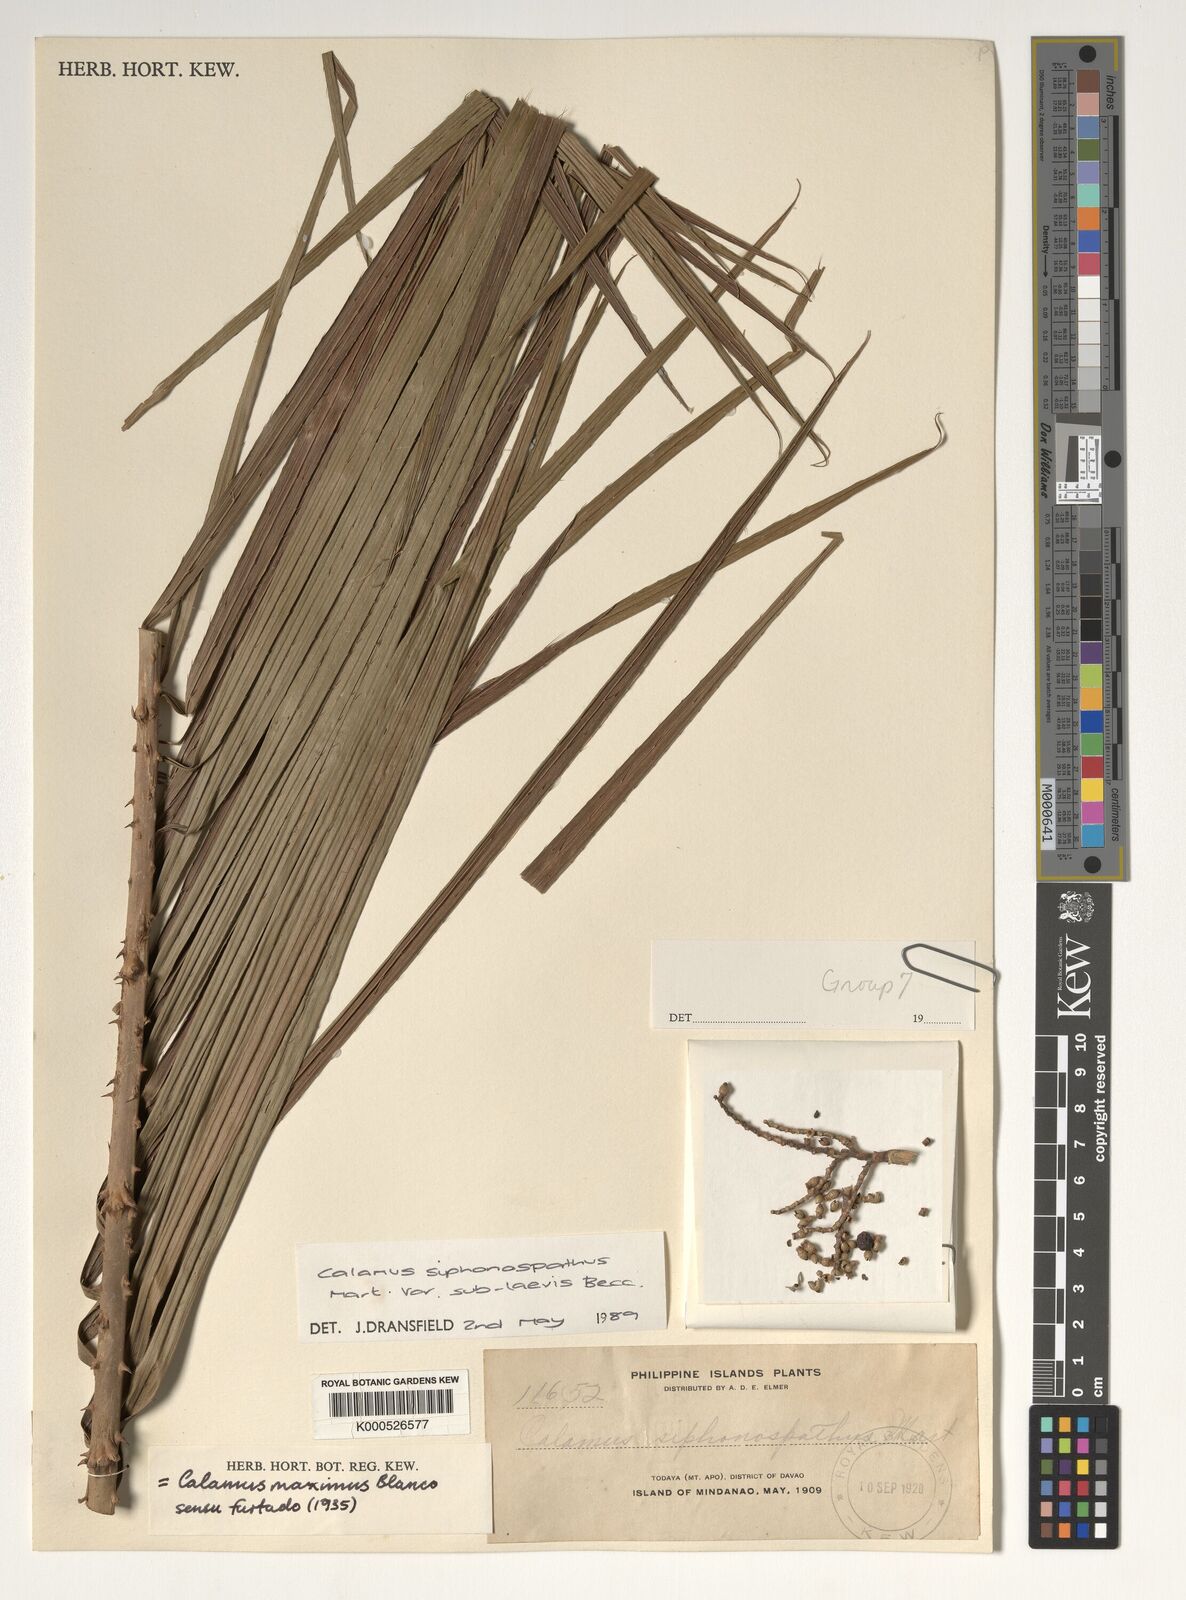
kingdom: Plantae
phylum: Tracheophyta
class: Liliopsida
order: Arecales
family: Arecaceae
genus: Calamus
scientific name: Calamus siphonospathus
